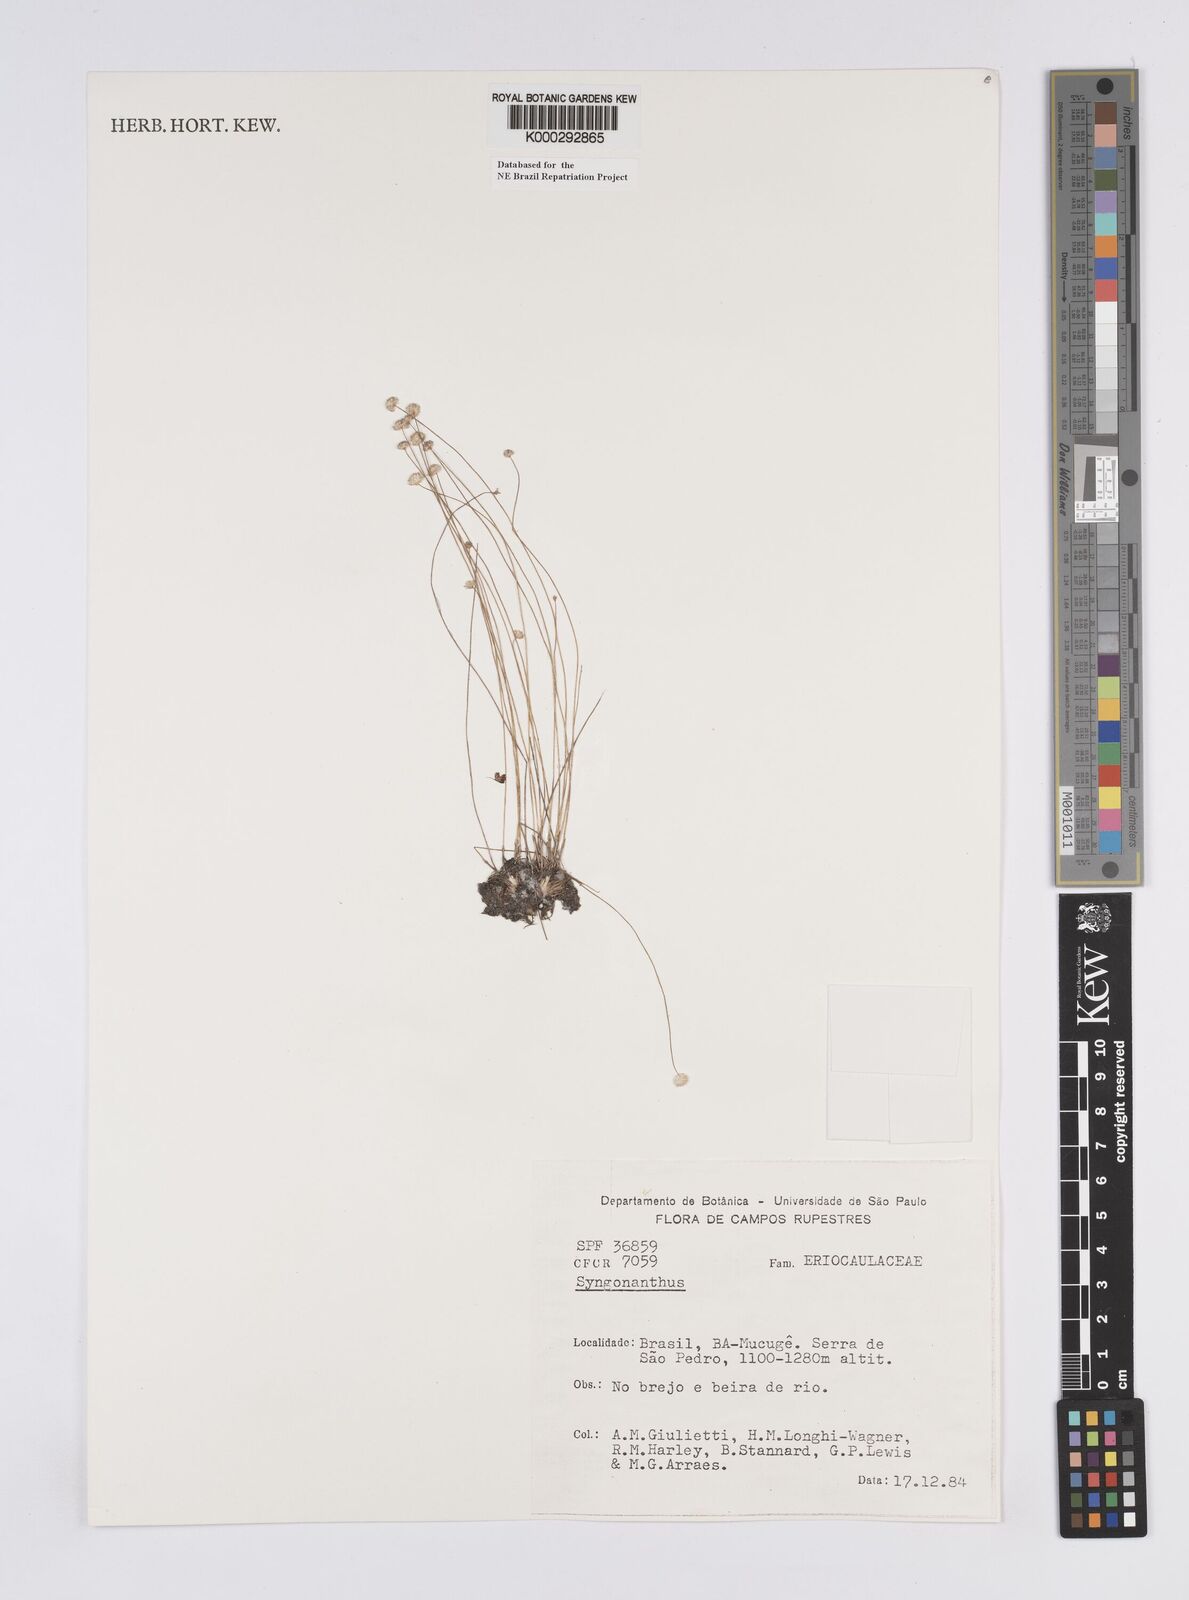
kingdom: Plantae
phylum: Tracheophyta
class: Liliopsida
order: Poales
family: Eriocaulaceae
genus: Syngonanthus
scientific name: Syngonanthus
